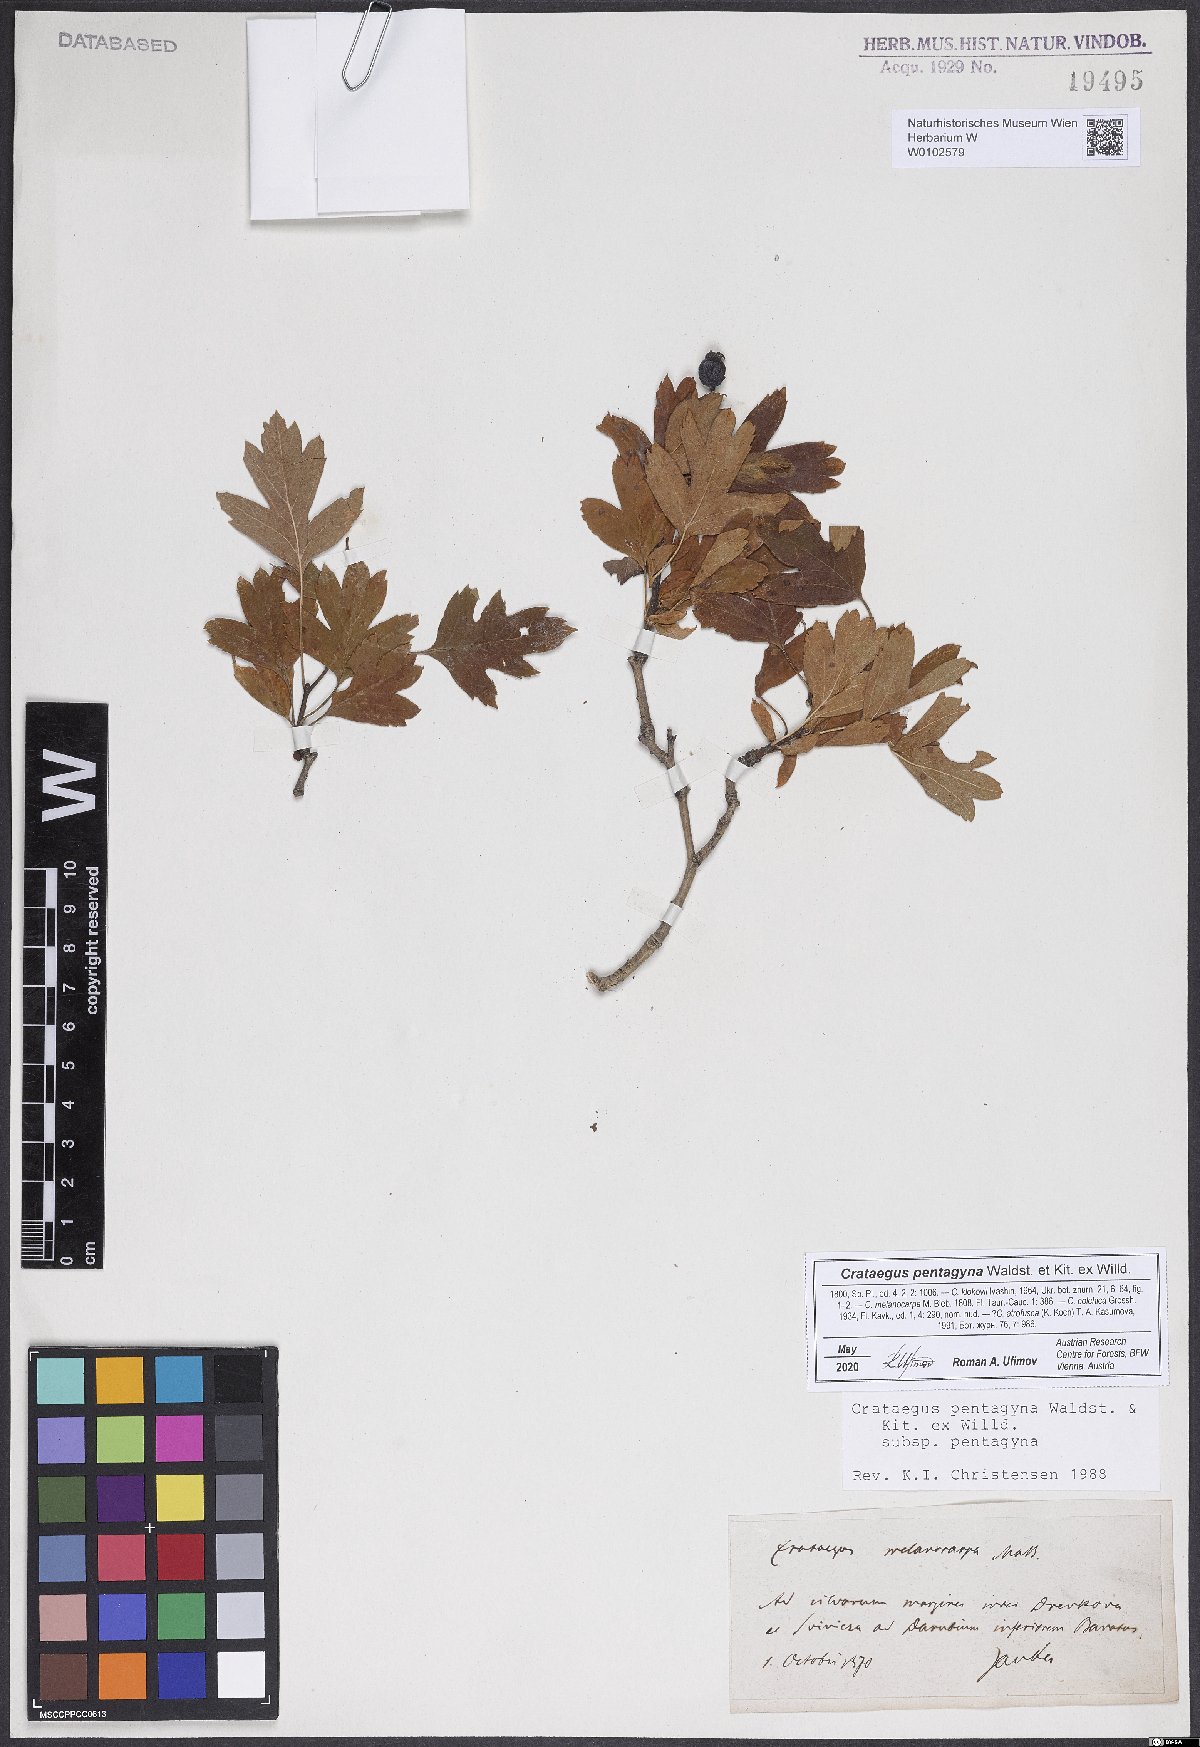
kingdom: Plantae
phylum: Tracheophyta
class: Magnoliopsida
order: Rosales
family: Rosaceae
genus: Crataegus
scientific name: Crataegus pentagyna
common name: Small-flowered black hawthorn
